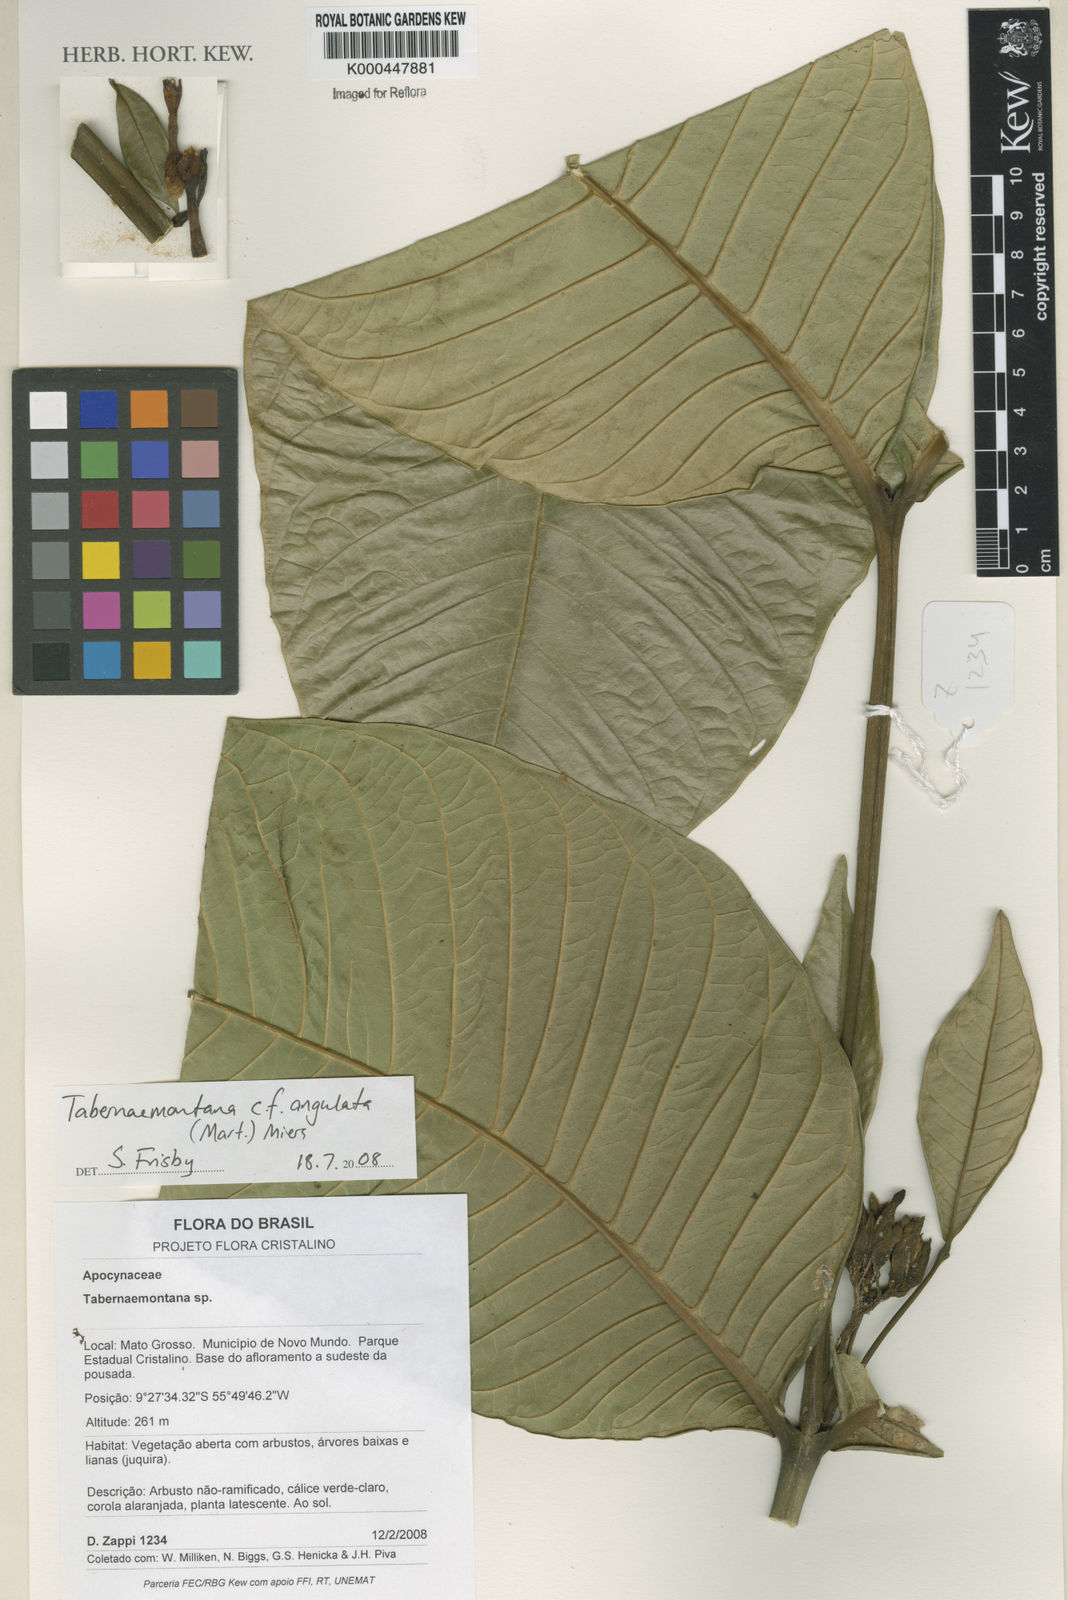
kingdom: Plantae
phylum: Tracheophyta
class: Magnoliopsida
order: Gentianales
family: Apocynaceae
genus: Tabernaemontana
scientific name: Tabernaemontana
